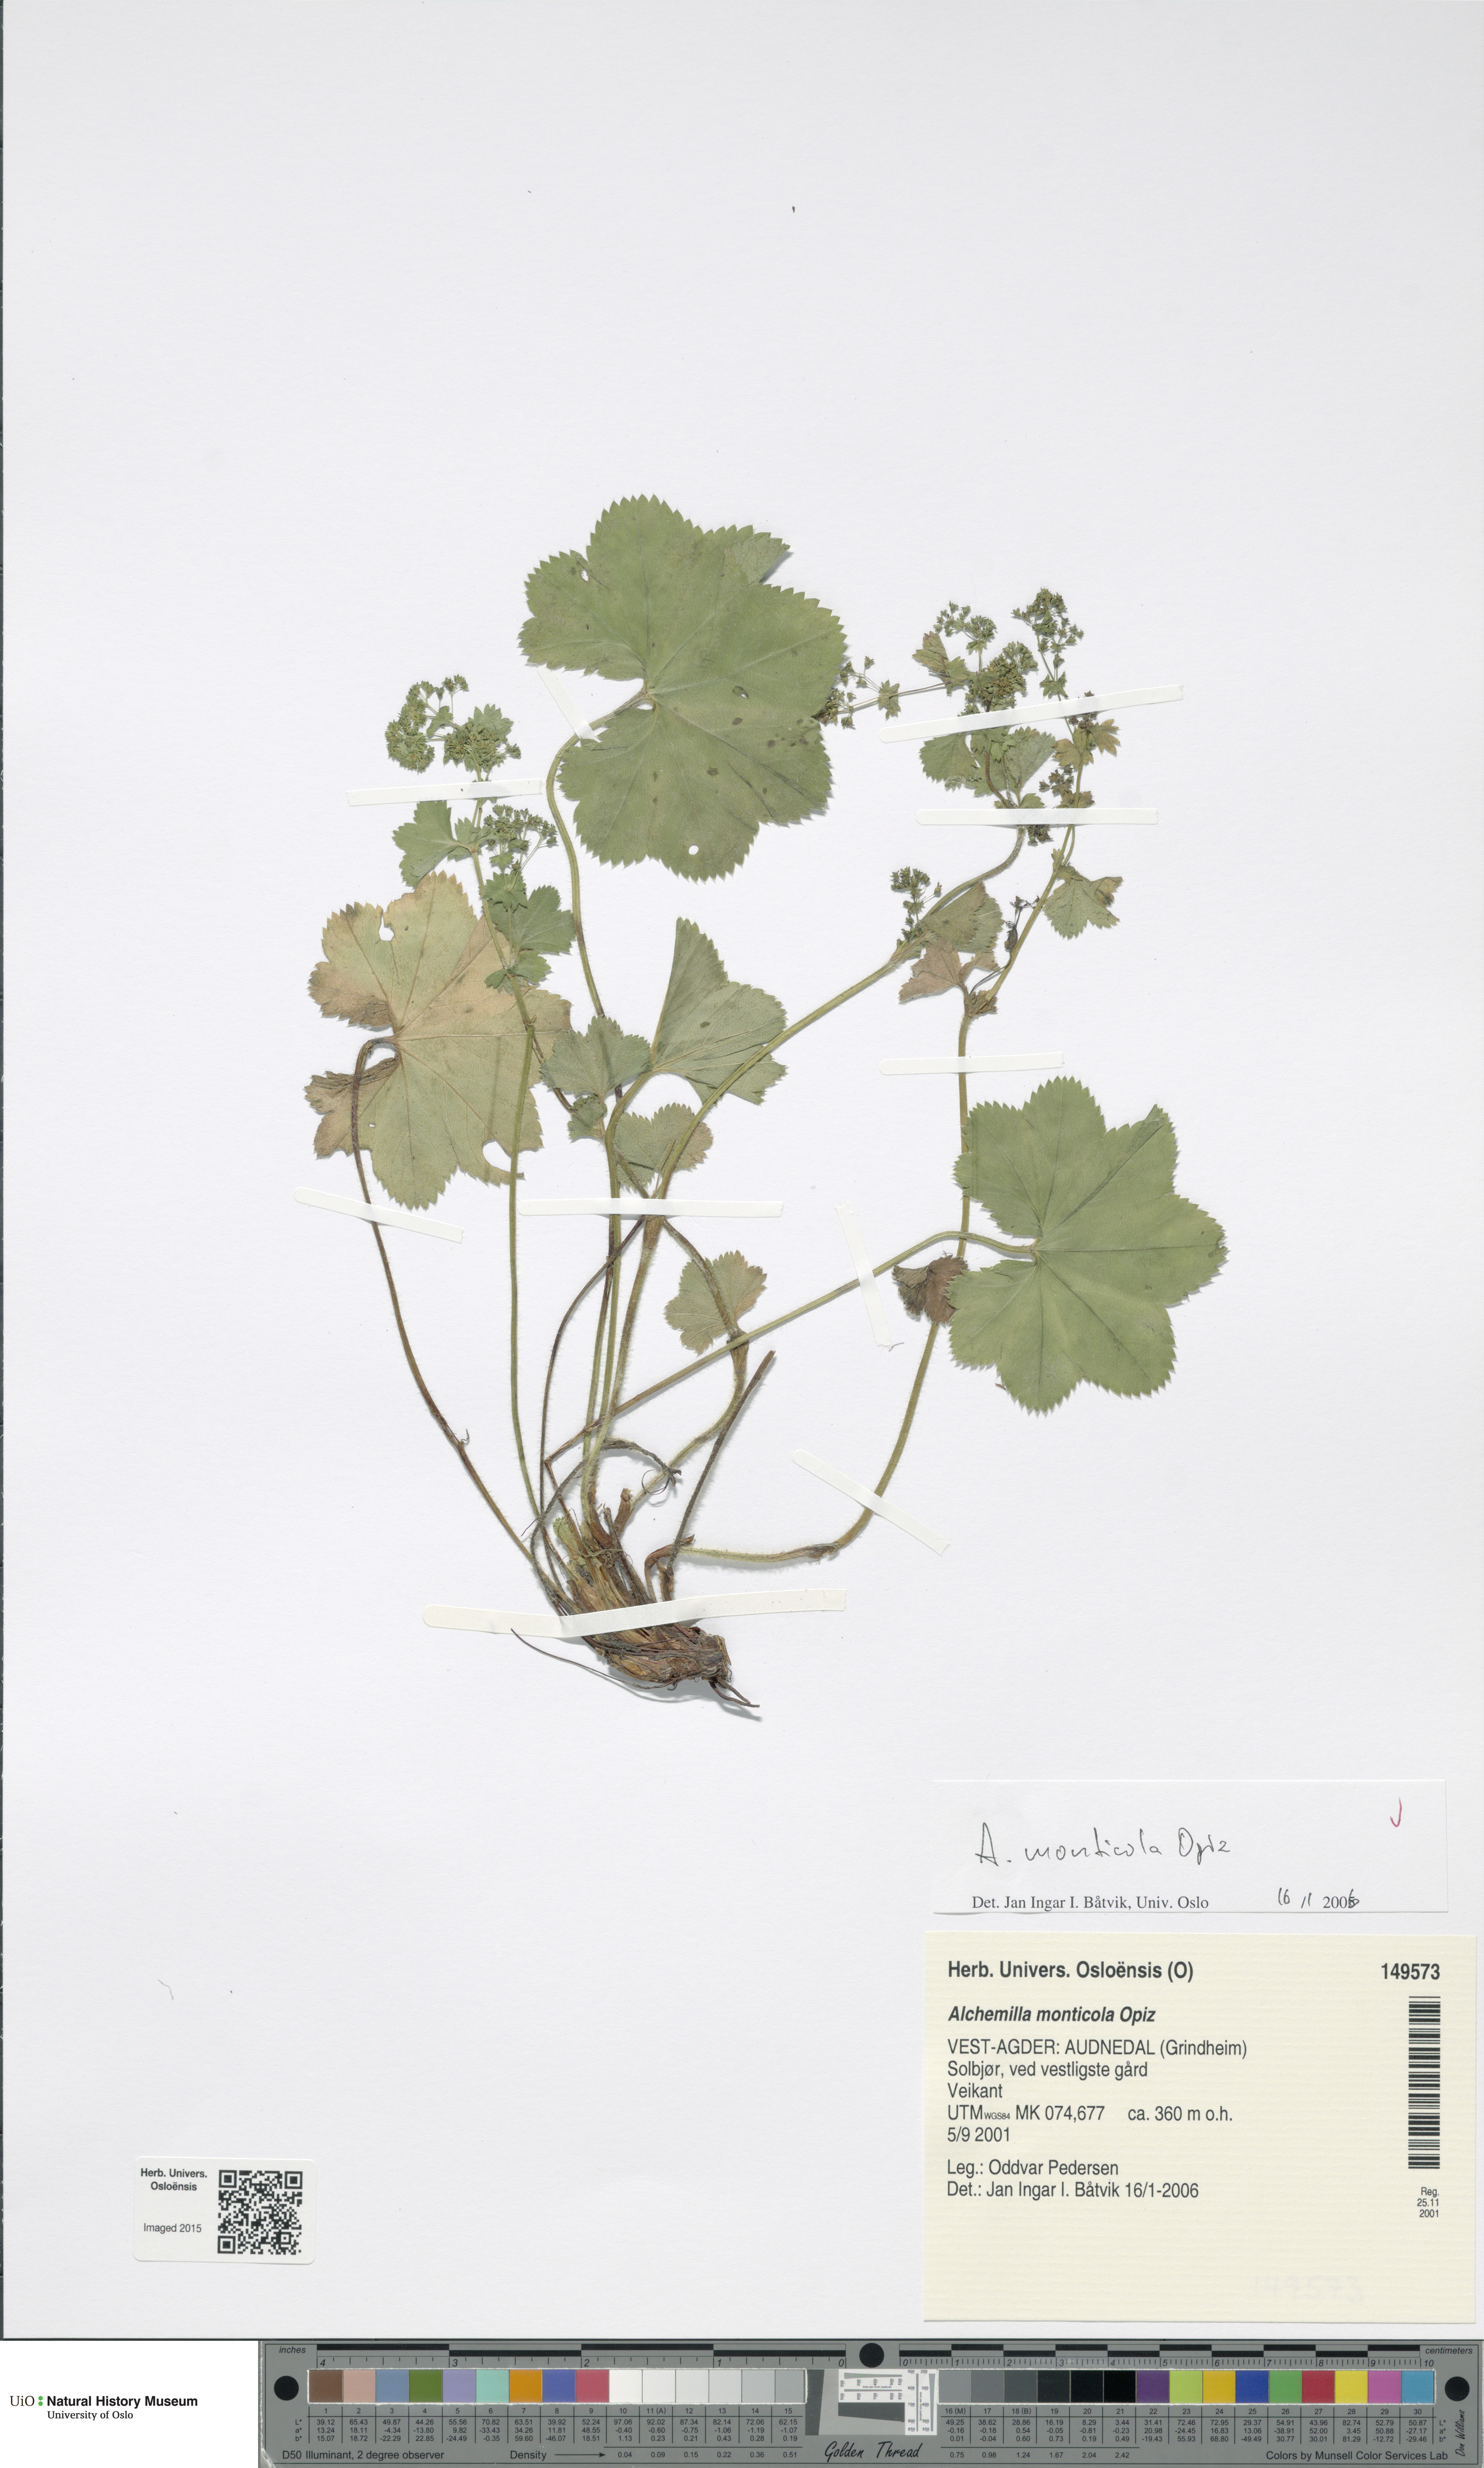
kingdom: Plantae
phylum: Tracheophyta
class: Magnoliopsida
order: Rosales
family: Rosaceae
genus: Alchemilla
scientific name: Alchemilla monticola
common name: Hairy lady's mantle
